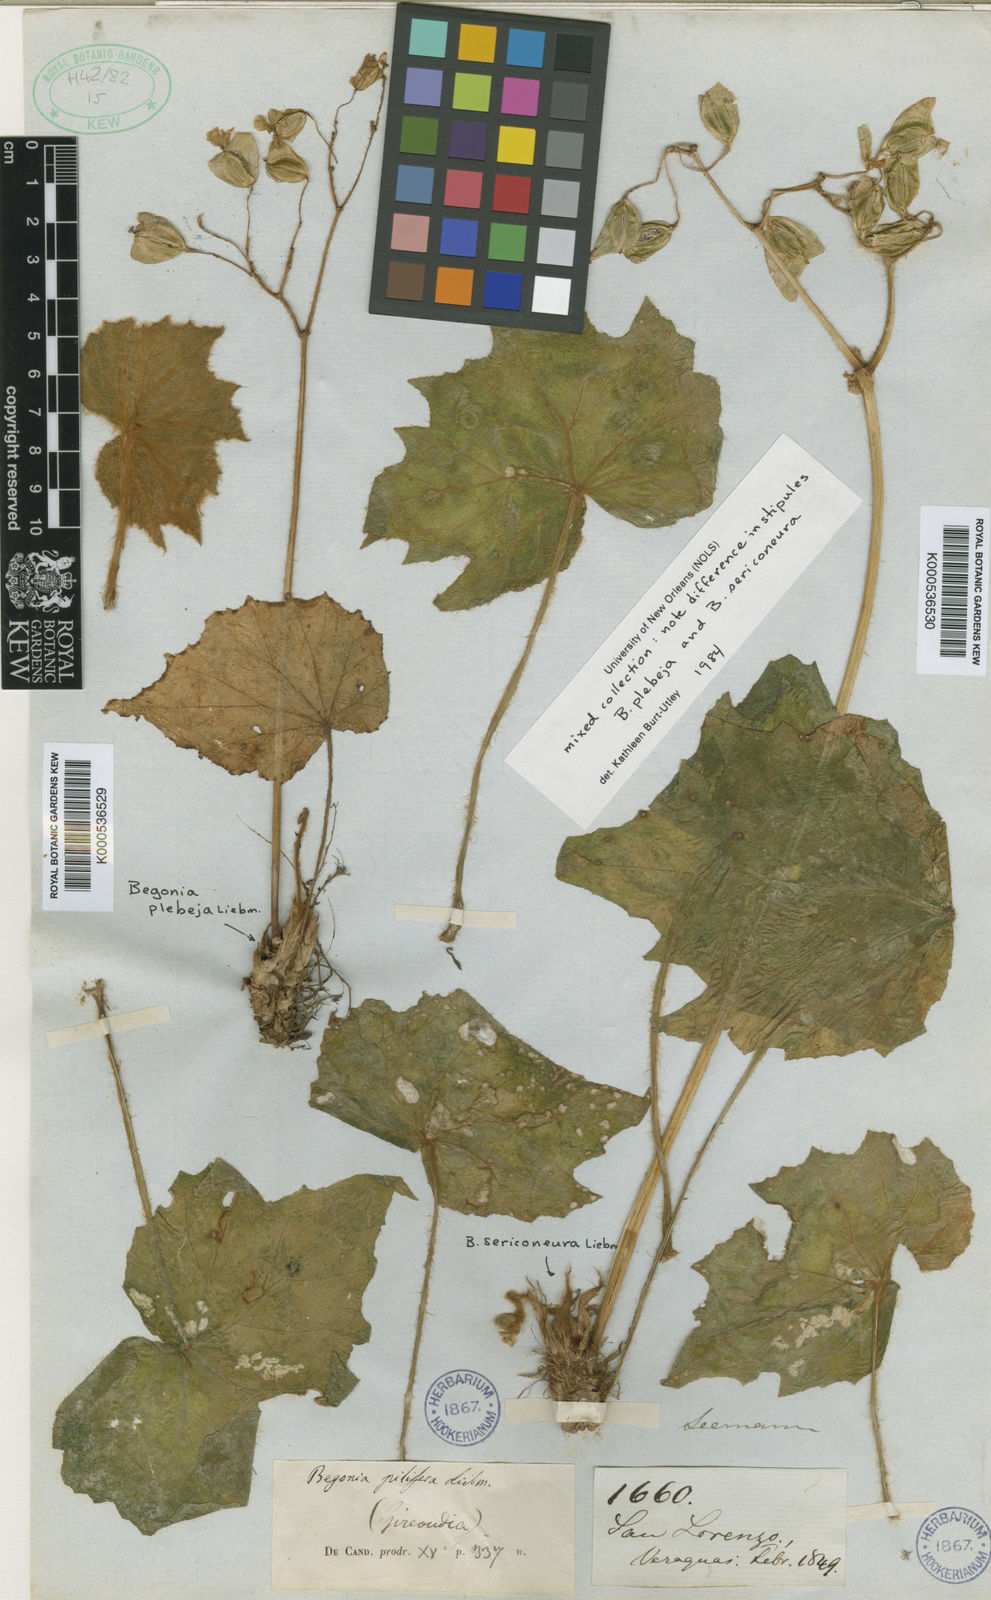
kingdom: Plantae
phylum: Tracheophyta
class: Magnoliopsida
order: Cucurbitales
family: Begoniaceae
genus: Begonia
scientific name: Begonia
